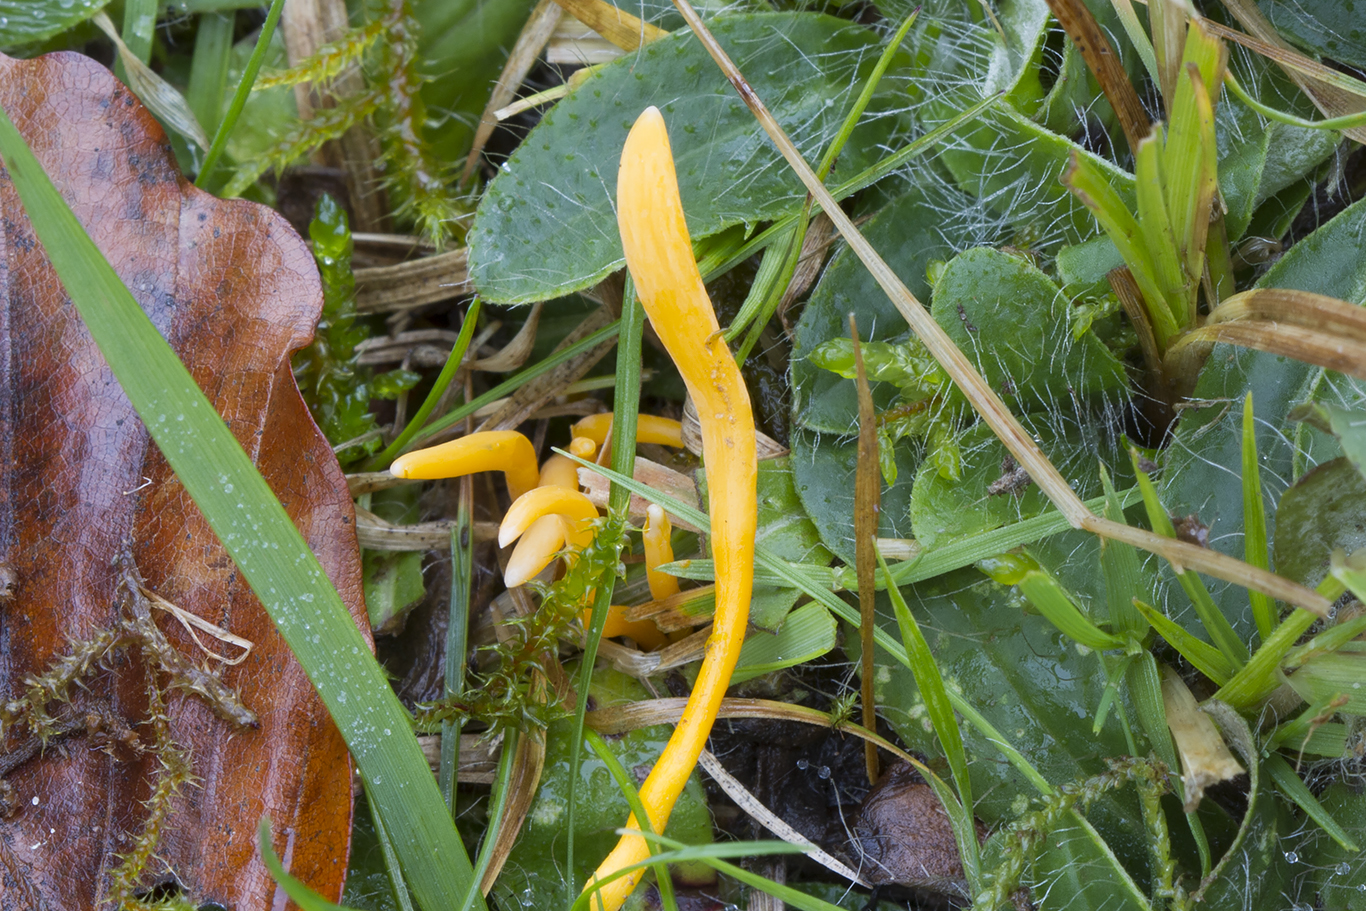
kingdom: Fungi
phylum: Basidiomycota
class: Agaricomycetes
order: Agaricales
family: Clavariaceae
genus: Clavulinopsis
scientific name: Clavulinopsis luteoalba
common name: abrikos-køllesvamp
